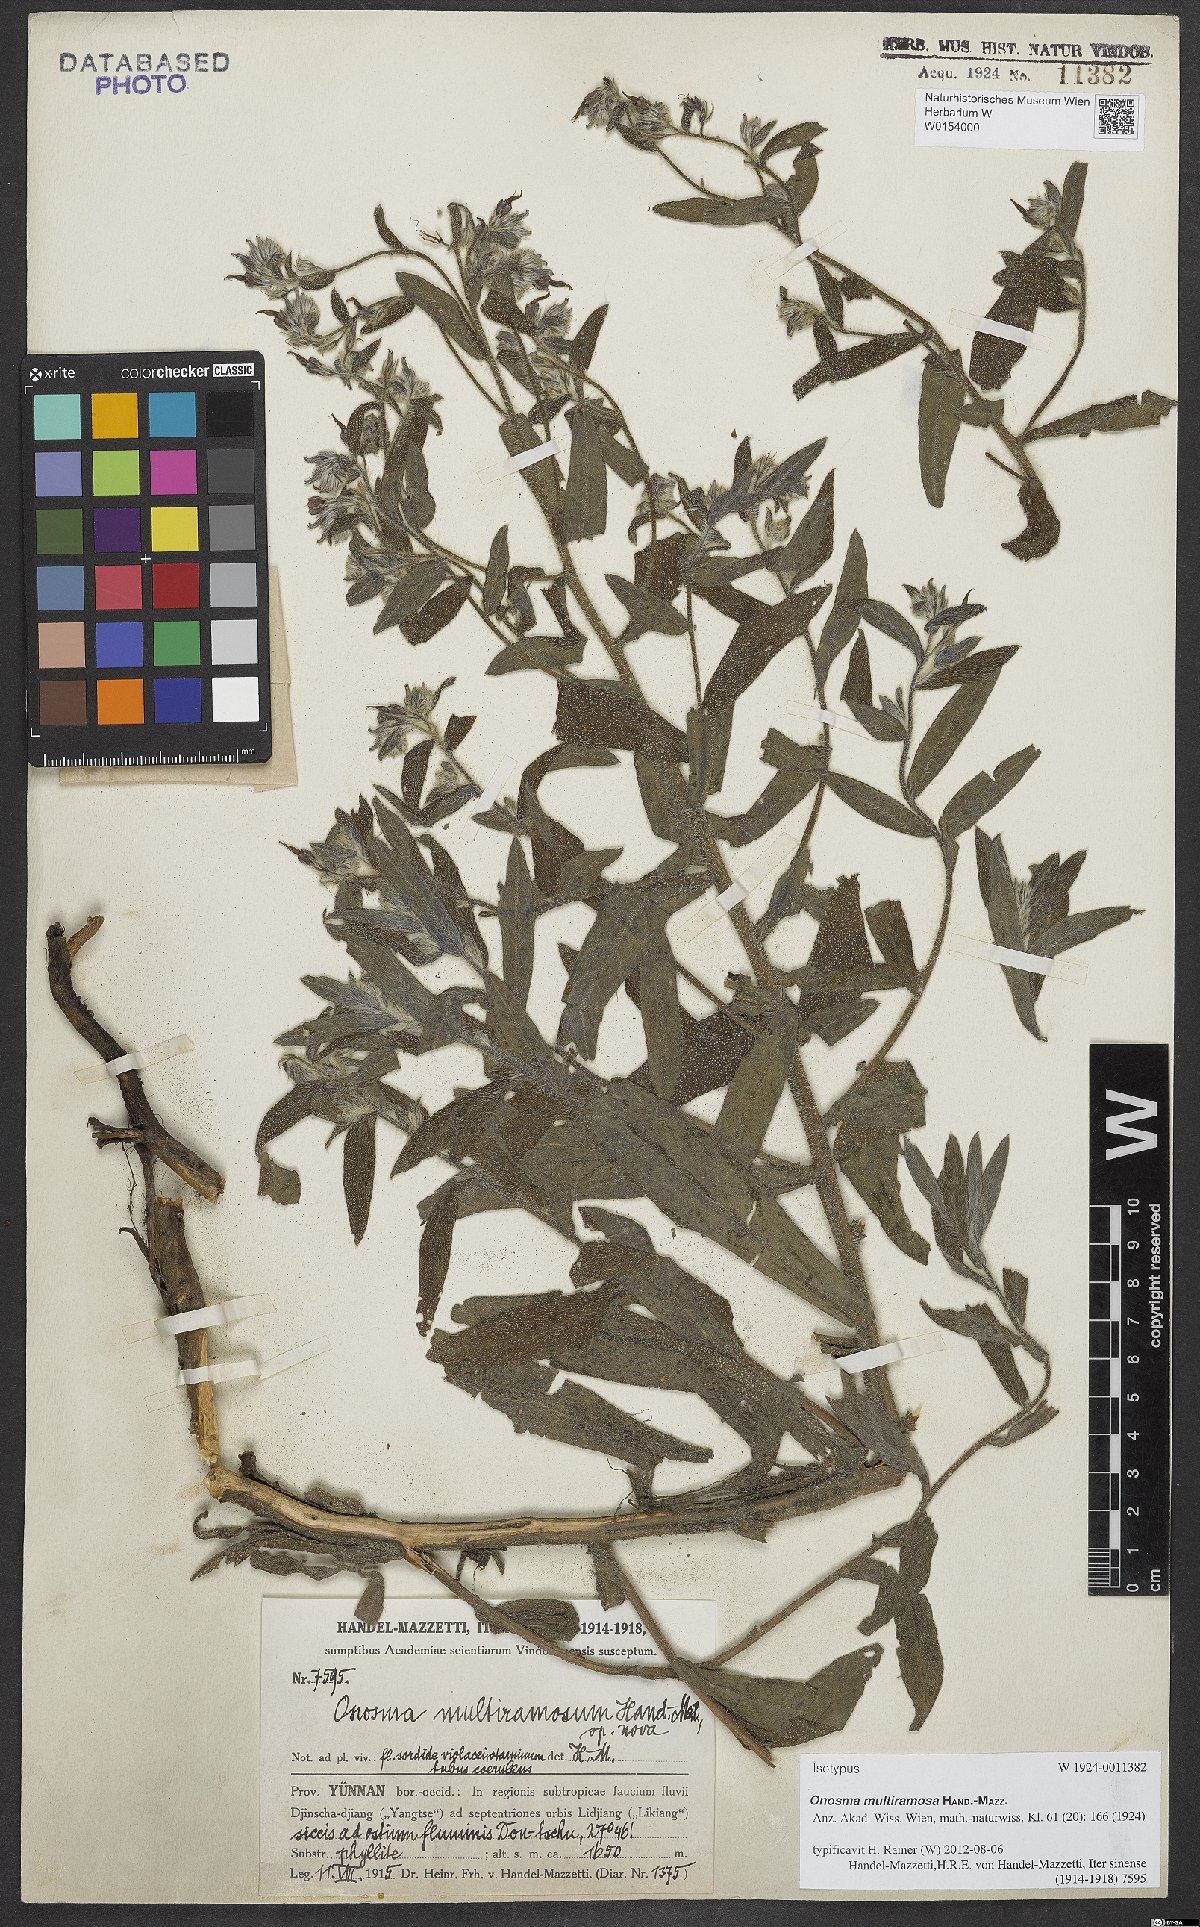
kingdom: Plantae
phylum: Tracheophyta
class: Magnoliopsida
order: Boraginales
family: Boraginaceae
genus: Maharanga
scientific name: Maharanga multiramosa
